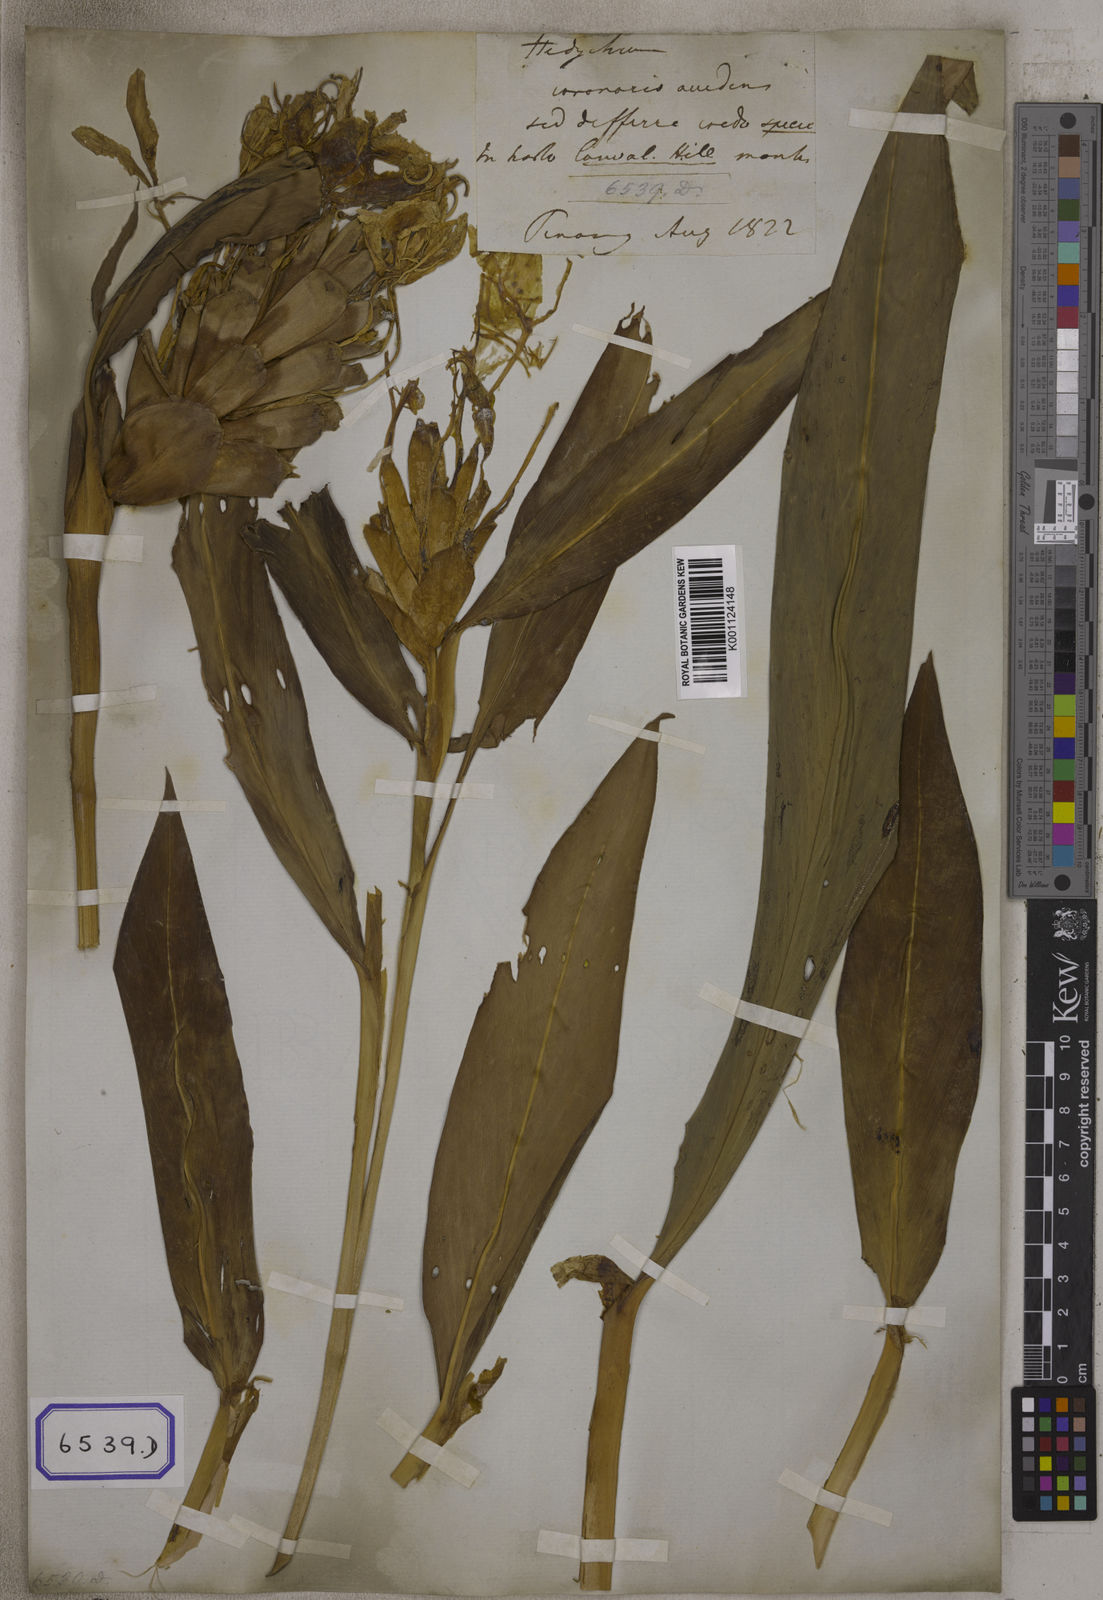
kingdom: Plantae
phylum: Tracheophyta
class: Liliopsida
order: Zingiberales
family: Zingiberaceae
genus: Hedychium
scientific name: Hedychium coronarium
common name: White garland-lily
